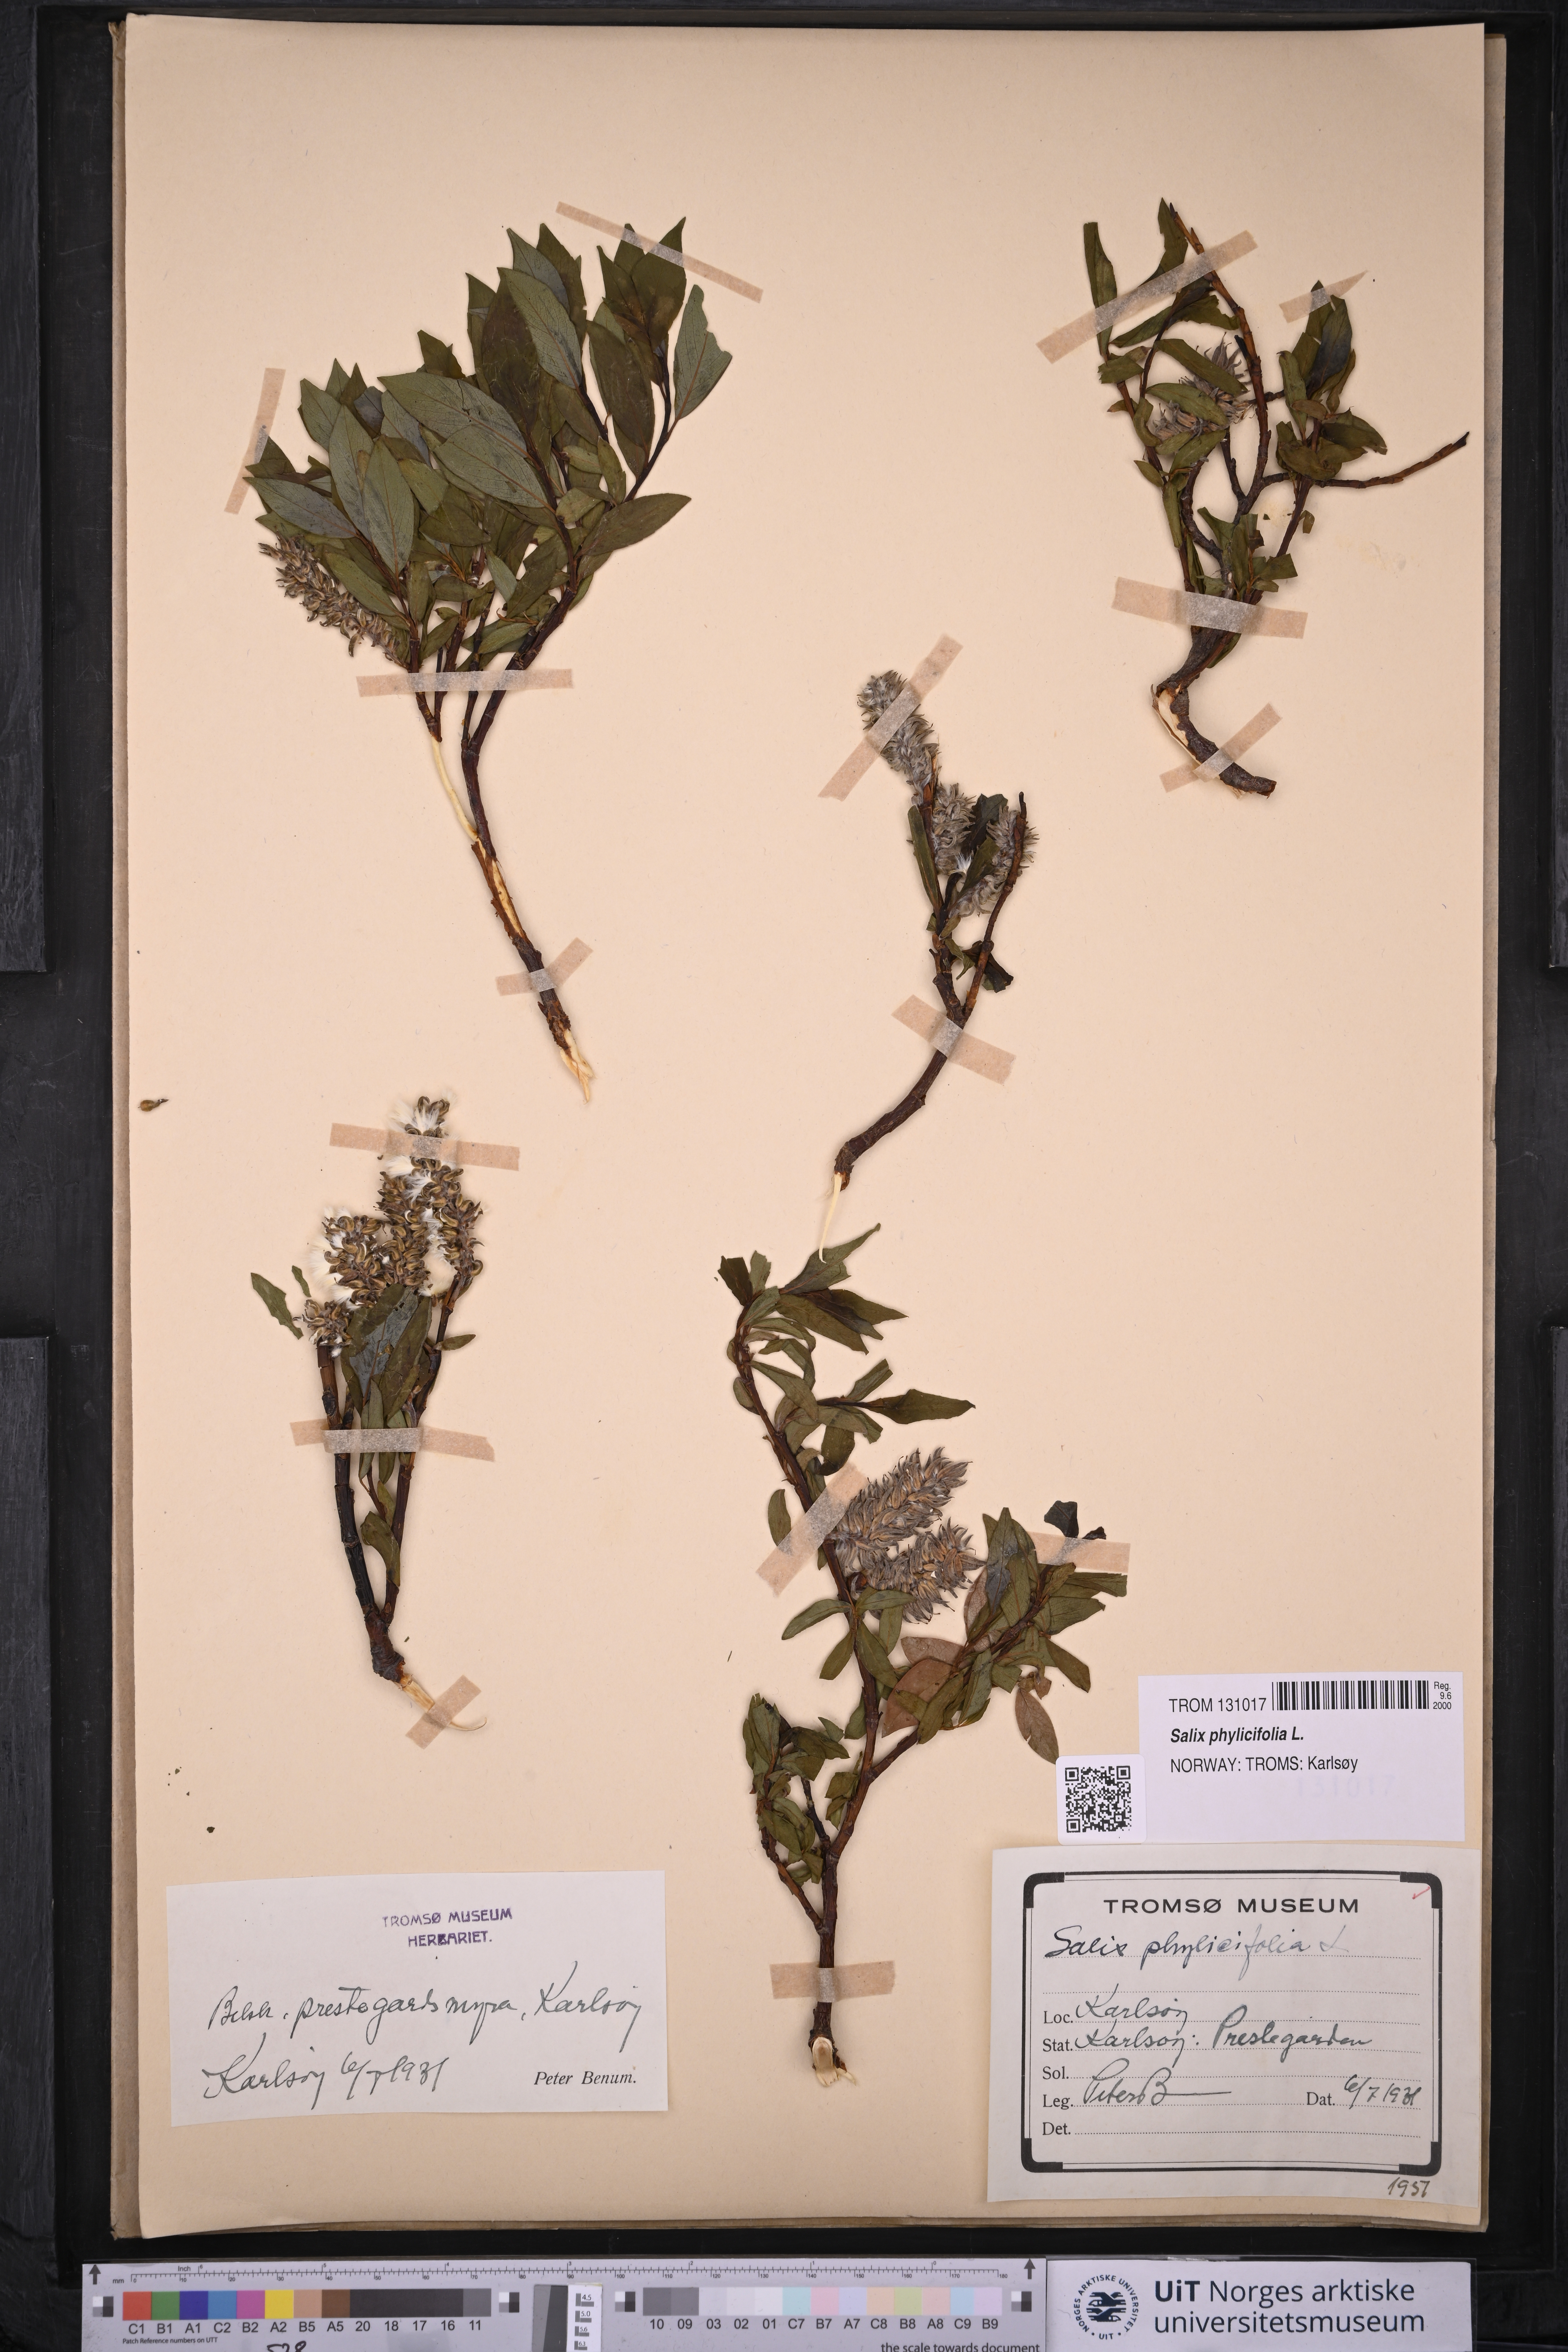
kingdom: Plantae
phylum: Tracheophyta
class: Magnoliopsida
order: Malpighiales
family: Salicaceae
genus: Salix
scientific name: Salix phylicifolia
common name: Tea-leaved willow
